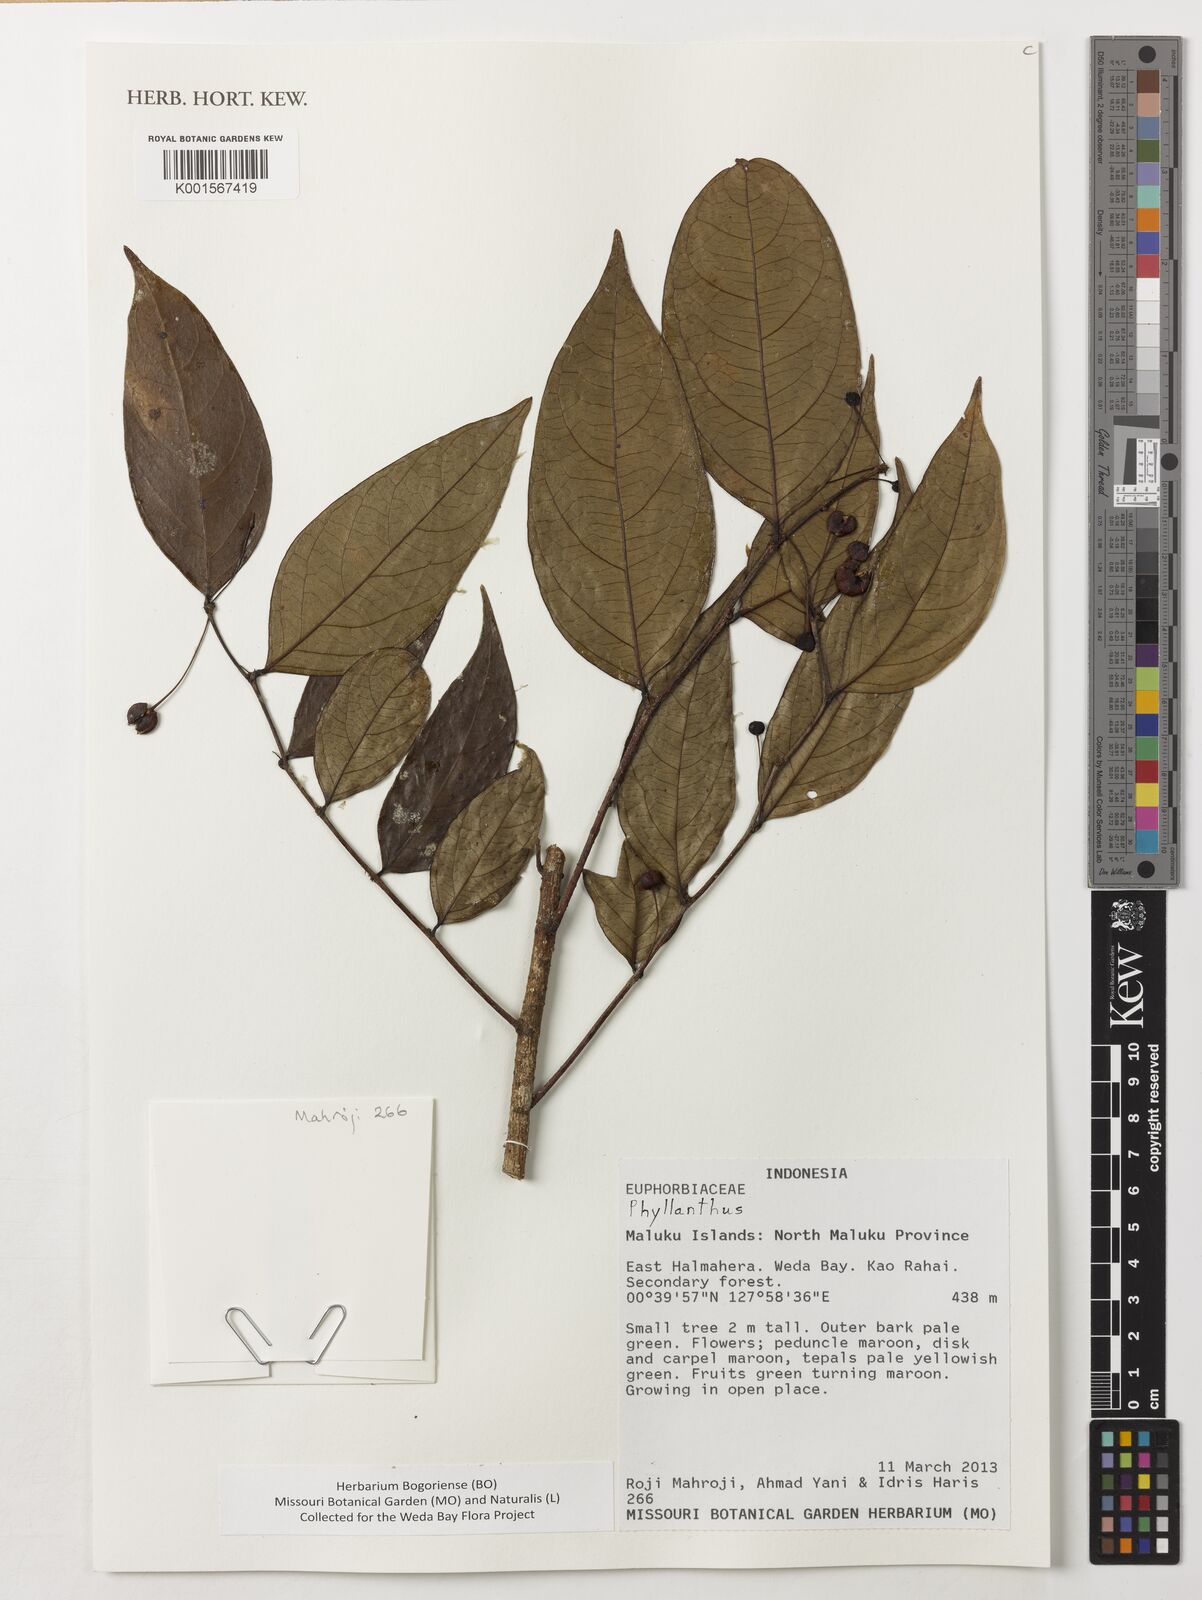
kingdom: Plantae
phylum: Tracheophyta
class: Magnoliopsida
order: Malpighiales
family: Phyllanthaceae
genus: Phyllanthus
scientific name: Phyllanthus
